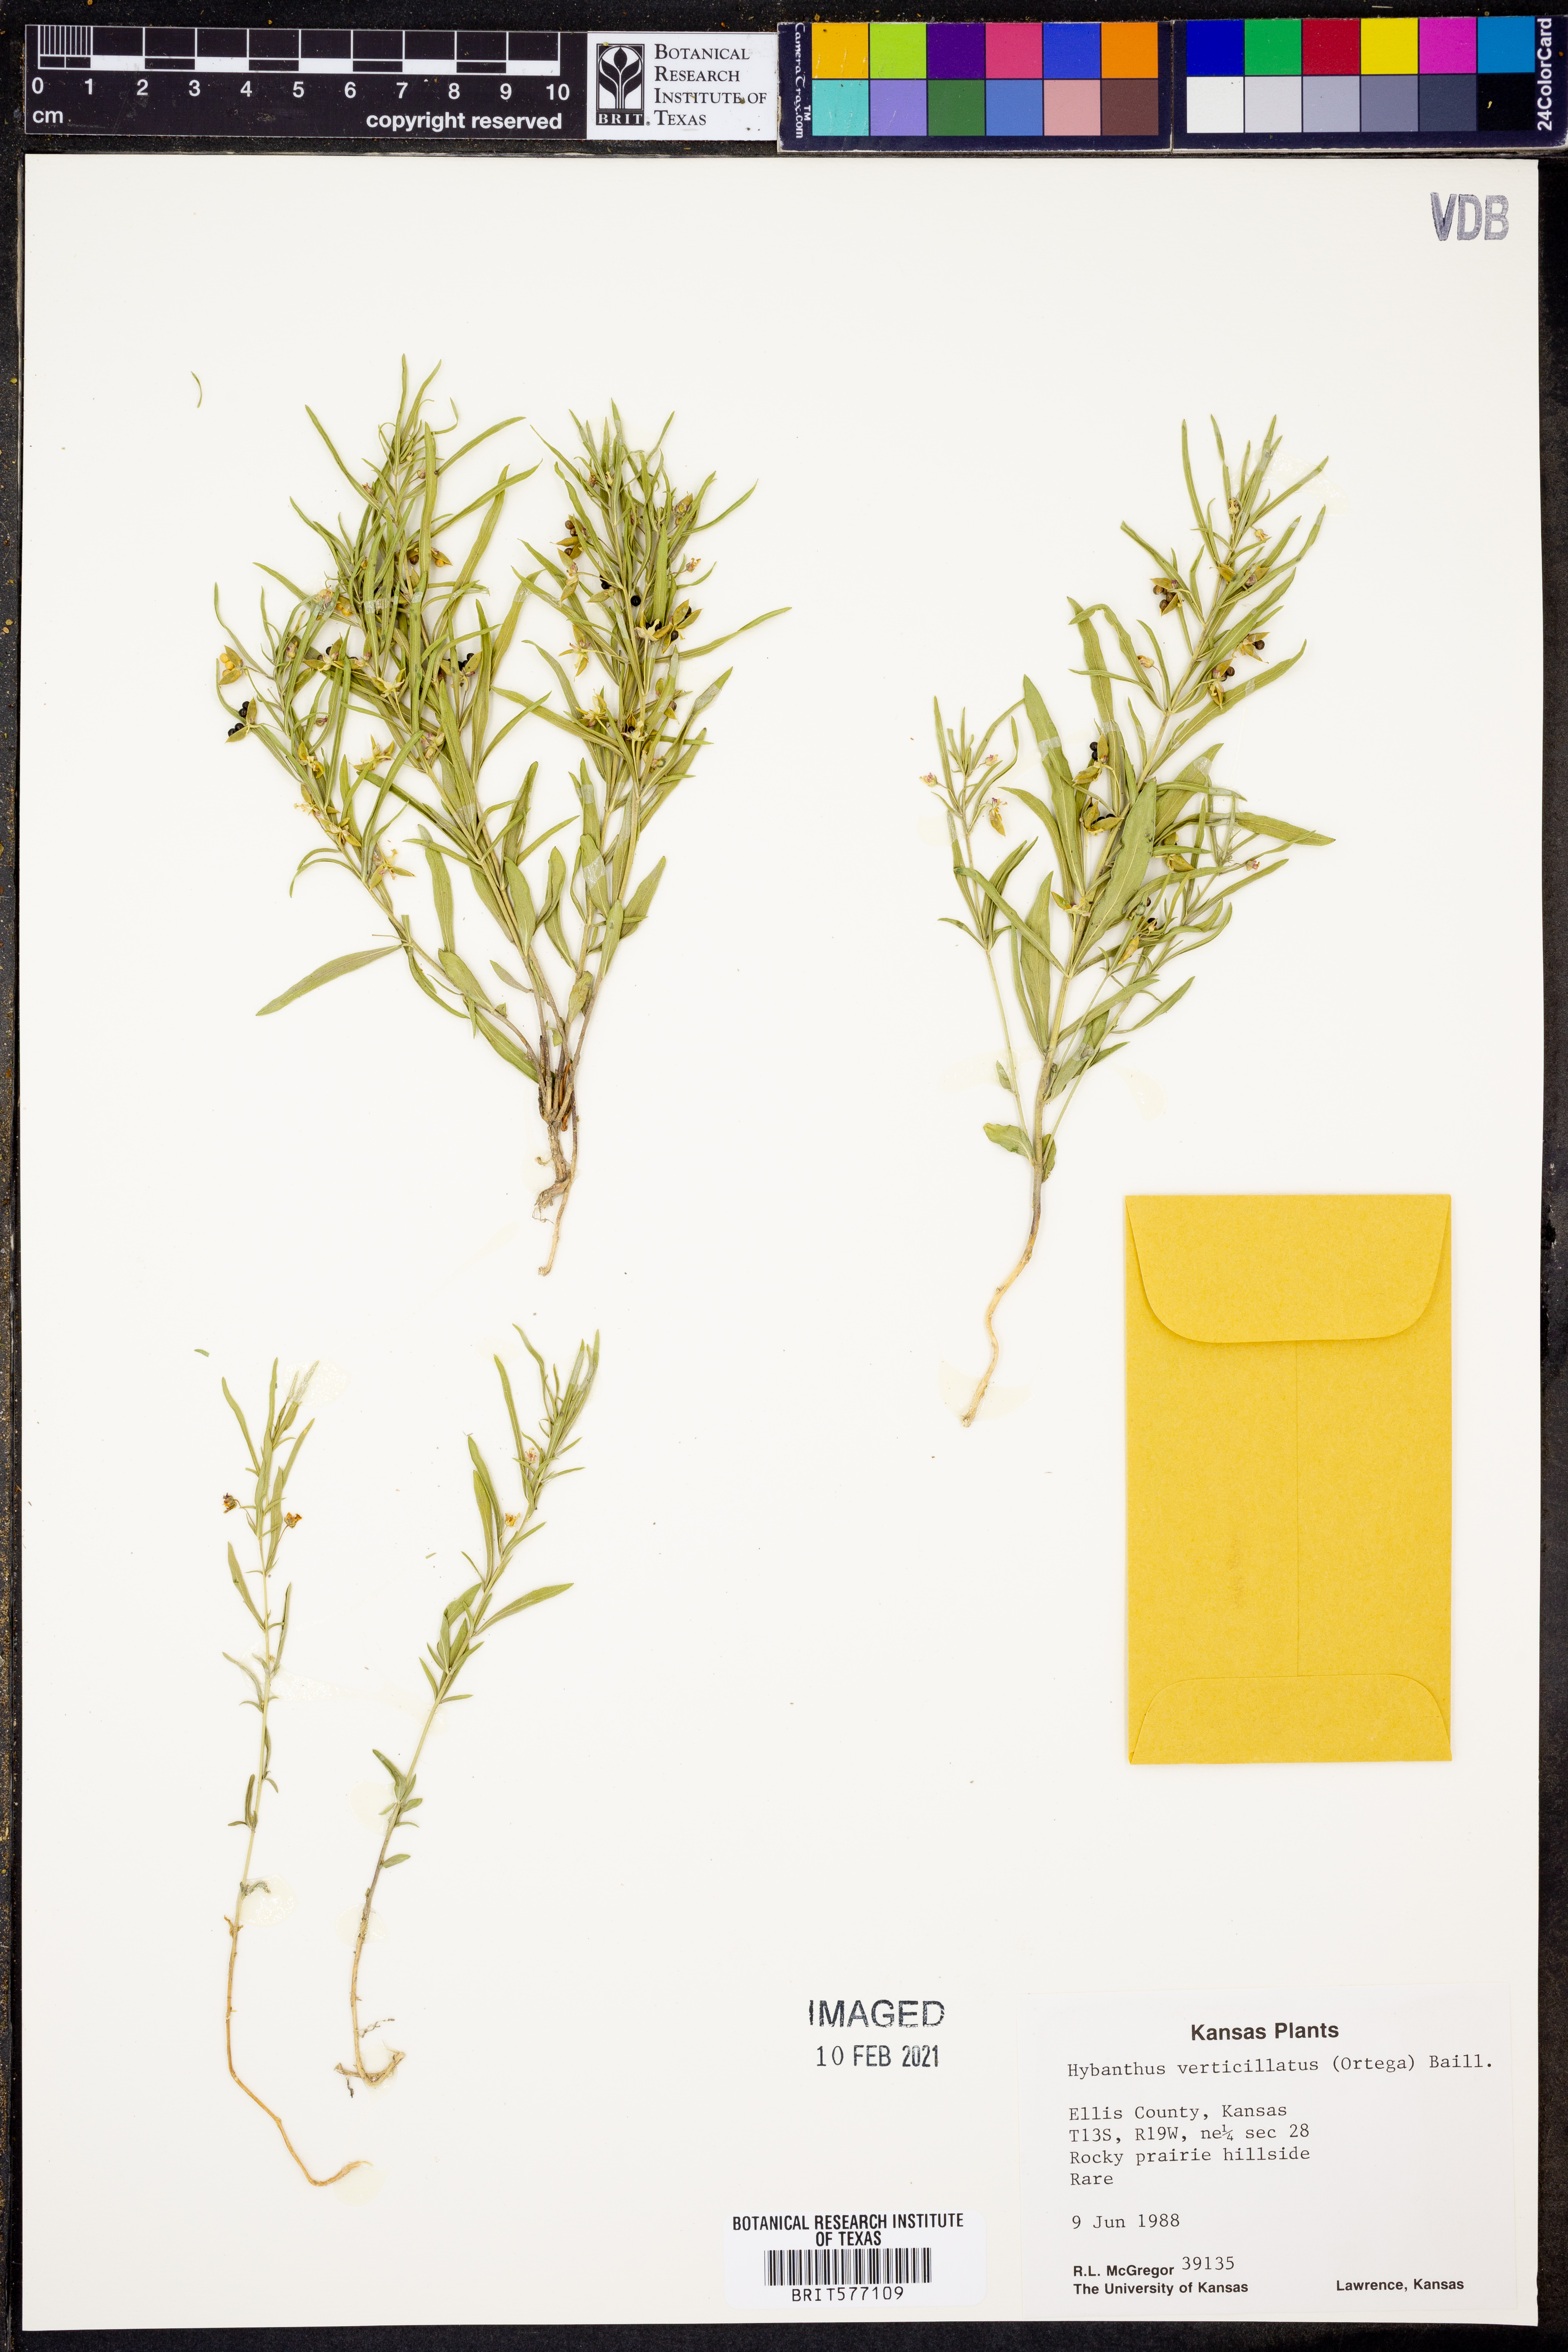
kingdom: Plantae
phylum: Tracheophyta
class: Magnoliopsida
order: Malpighiales
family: Violaceae
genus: Pombalia
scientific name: Pombalia verticillata
